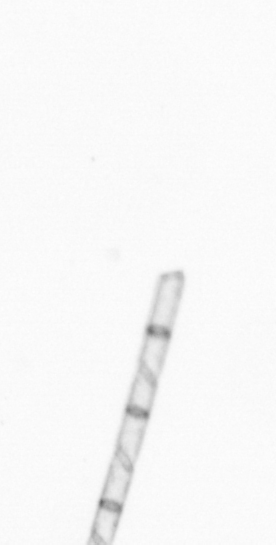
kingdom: Chromista
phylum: Ochrophyta
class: Bacillariophyceae
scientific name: Bacillariophyceae
